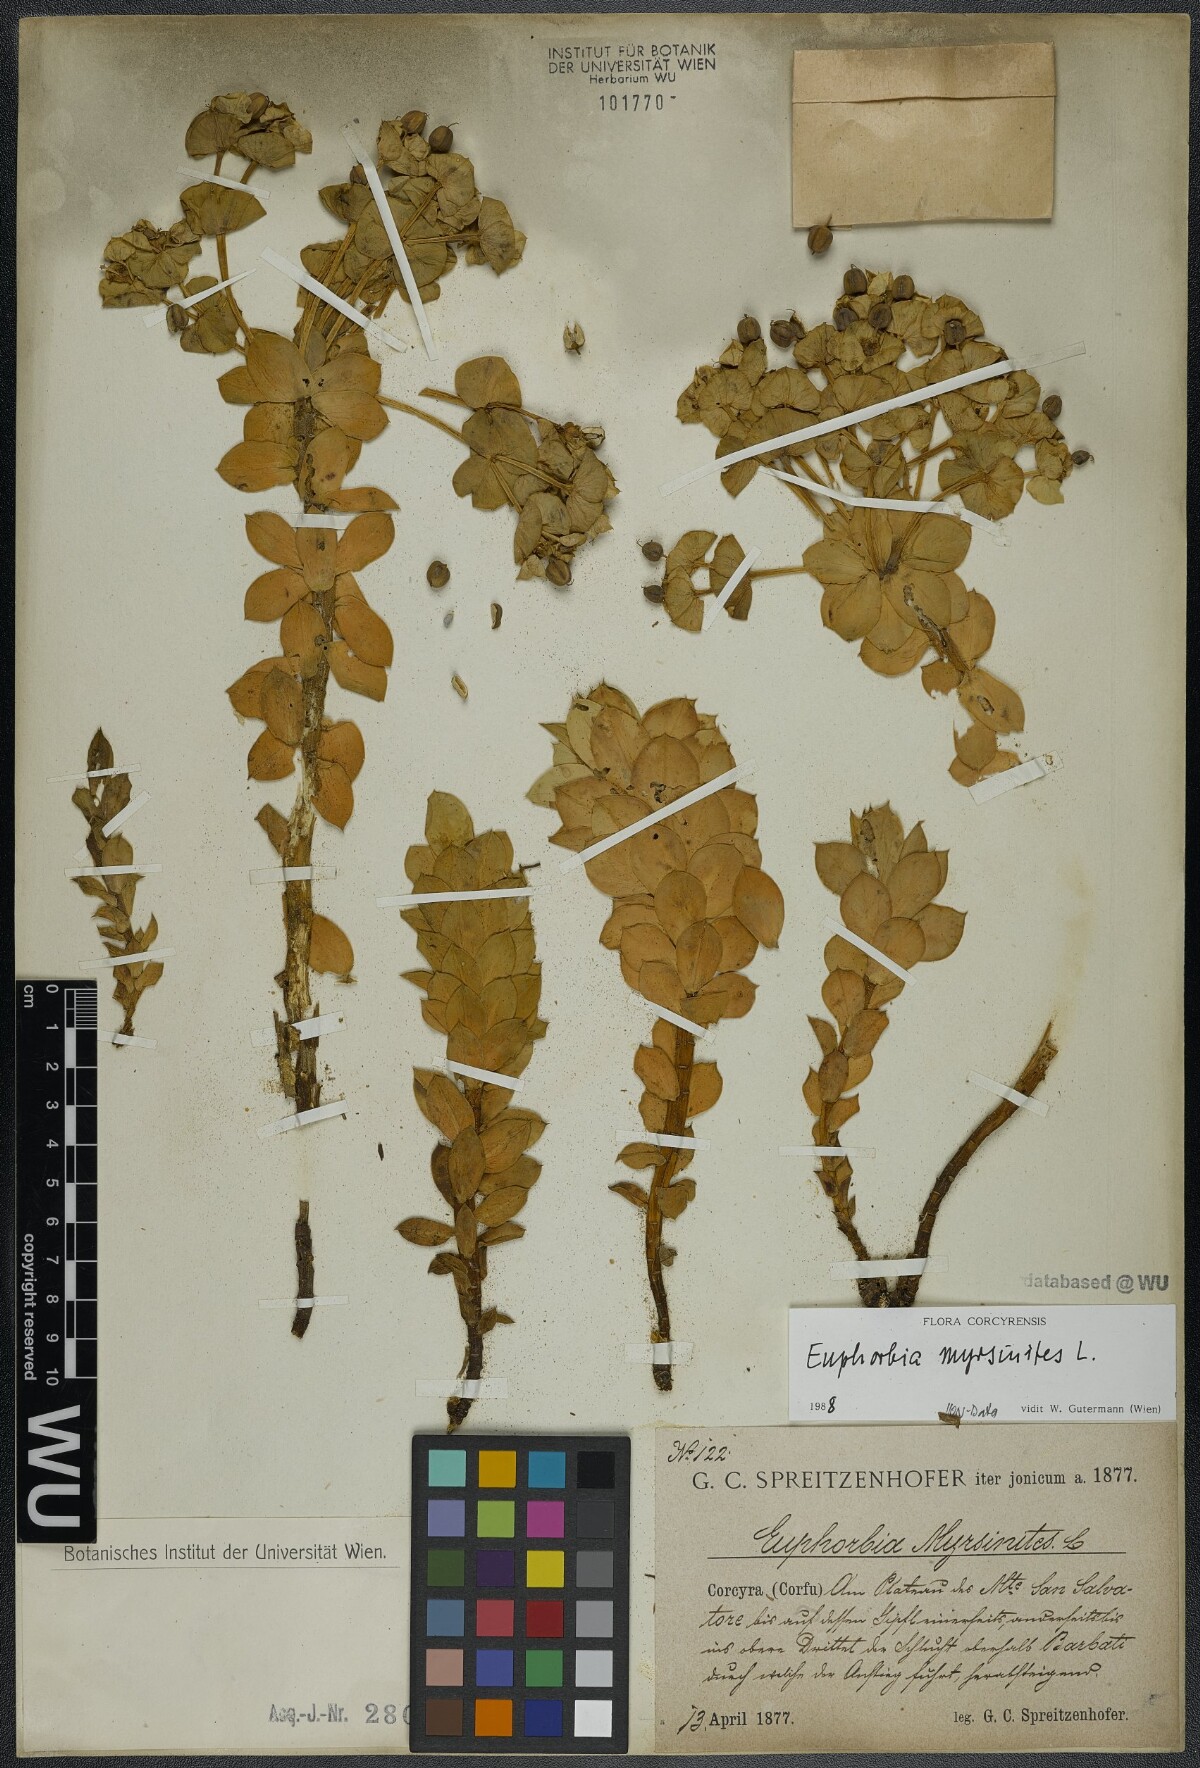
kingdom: Plantae
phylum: Tracheophyta
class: Magnoliopsida
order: Malpighiales
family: Euphorbiaceae
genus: Euphorbia
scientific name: Euphorbia myrsinites
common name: Myrtle spurge
